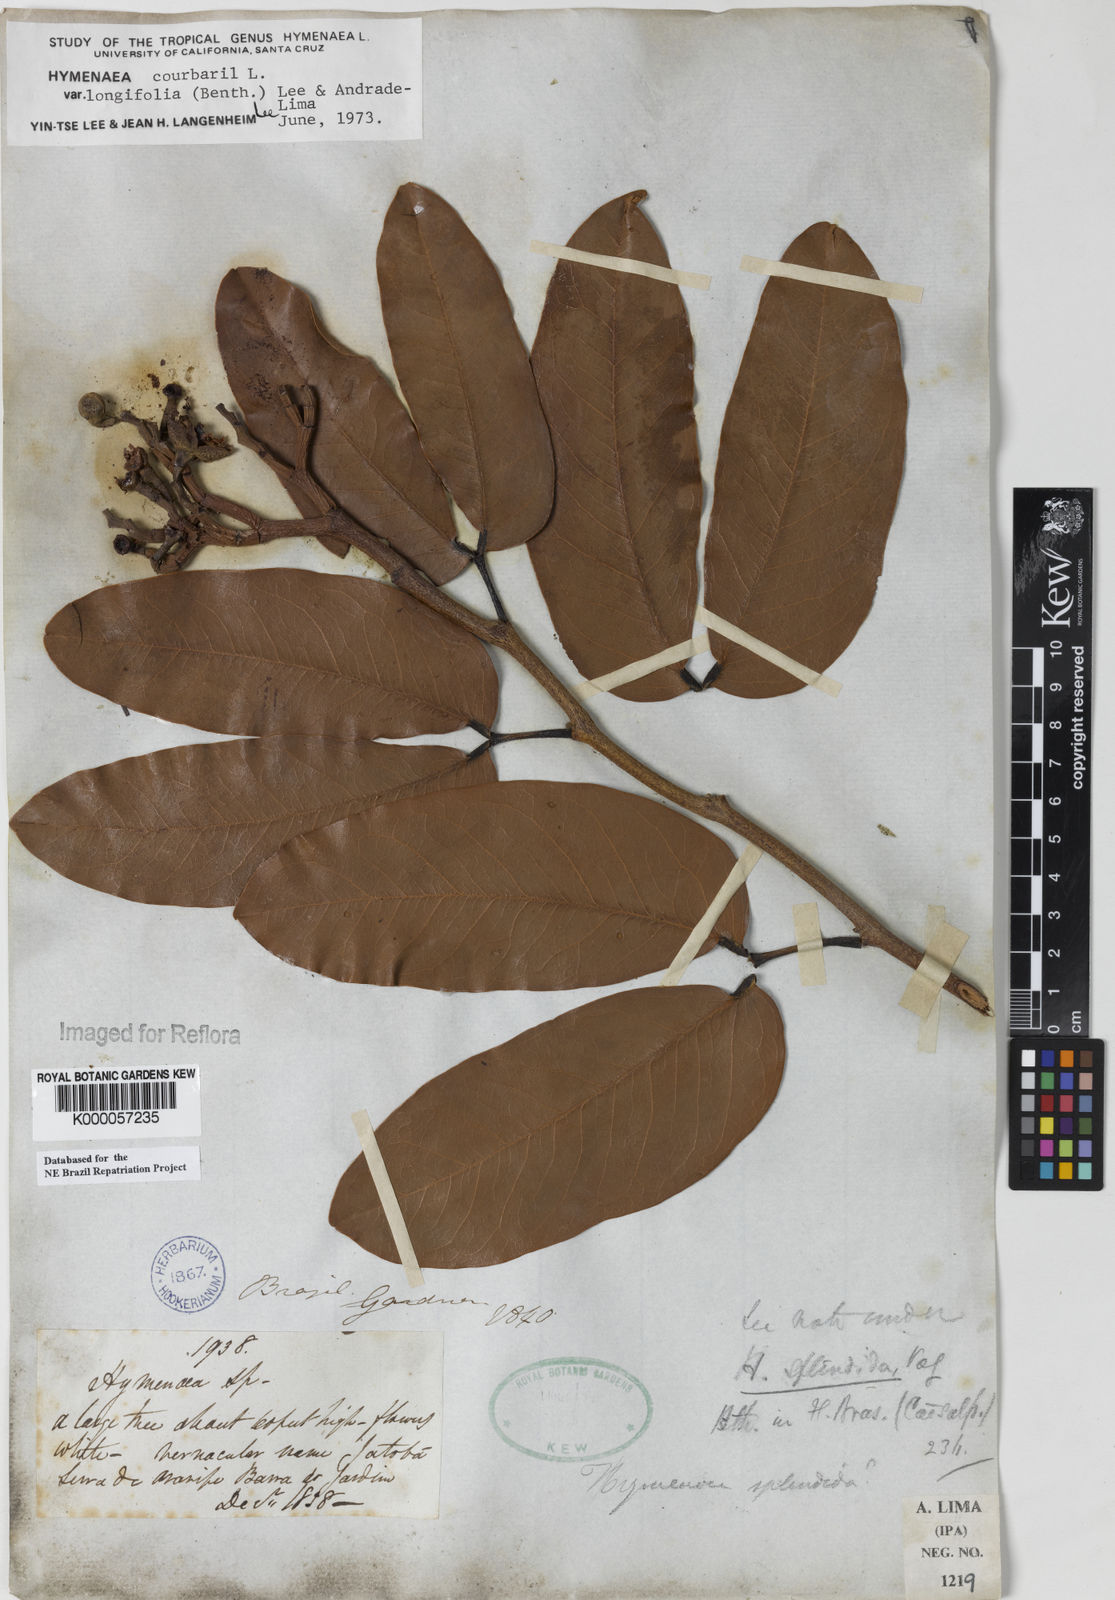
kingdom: Plantae
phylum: Tracheophyta
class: Magnoliopsida
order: Fabales
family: Fabaceae
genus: Hymenaea
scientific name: Hymenaea longifolia
